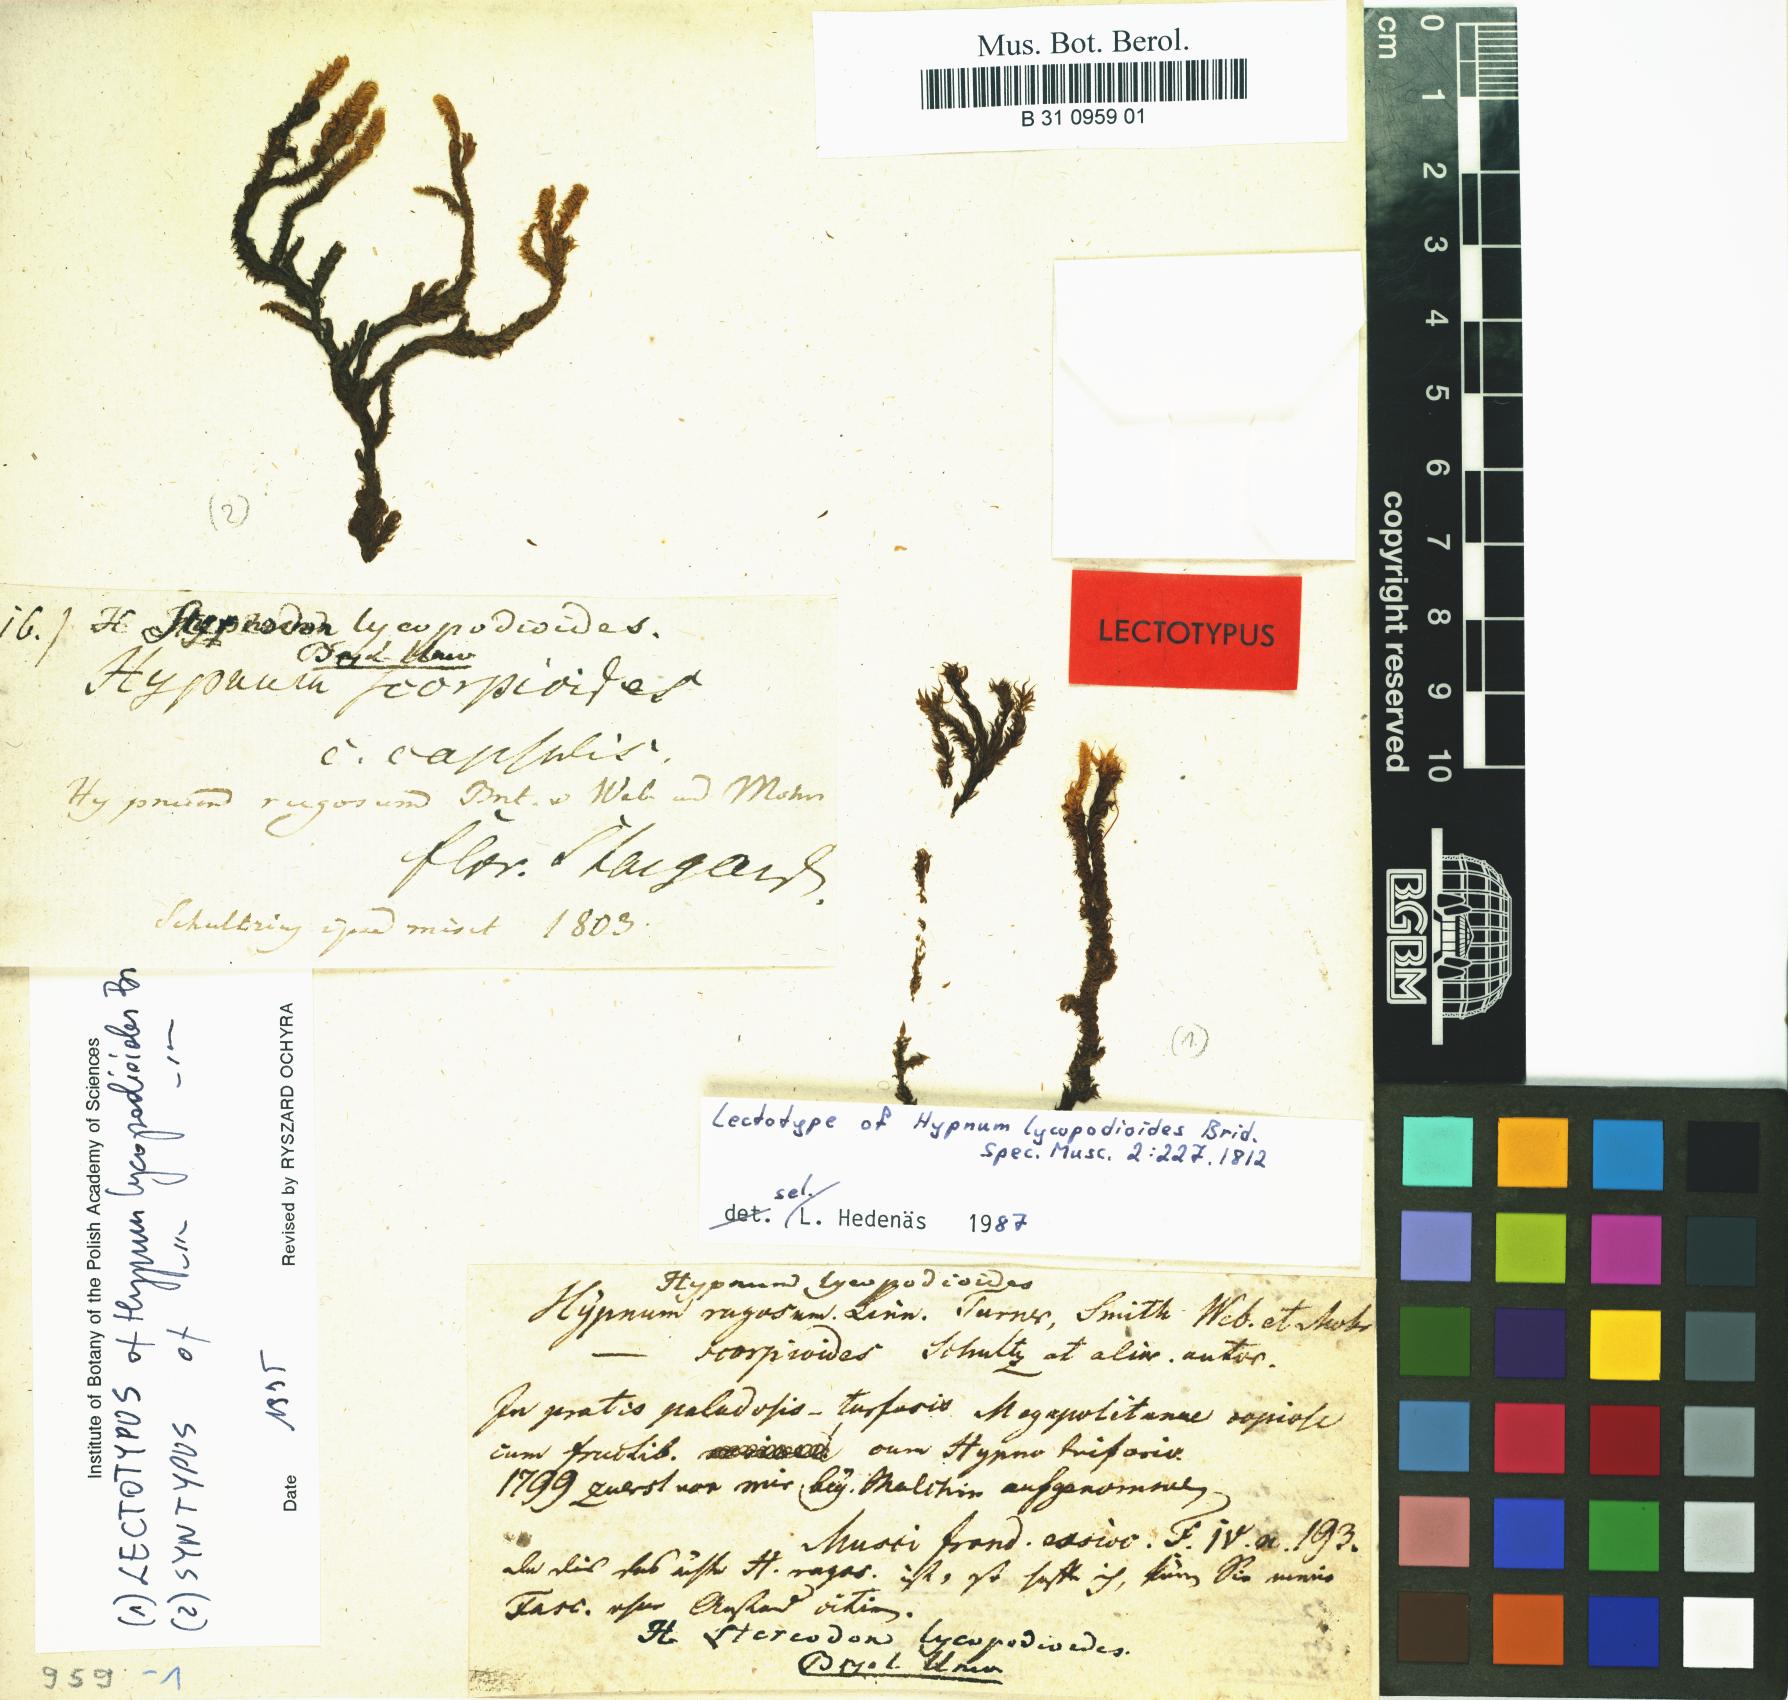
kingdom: Plantae
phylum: Bryophyta
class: Bryopsida
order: Hypnales
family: Amblystegiaceae
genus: Drepanocladus
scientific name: Drepanocladus lycopodioides
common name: Large hook-moss
